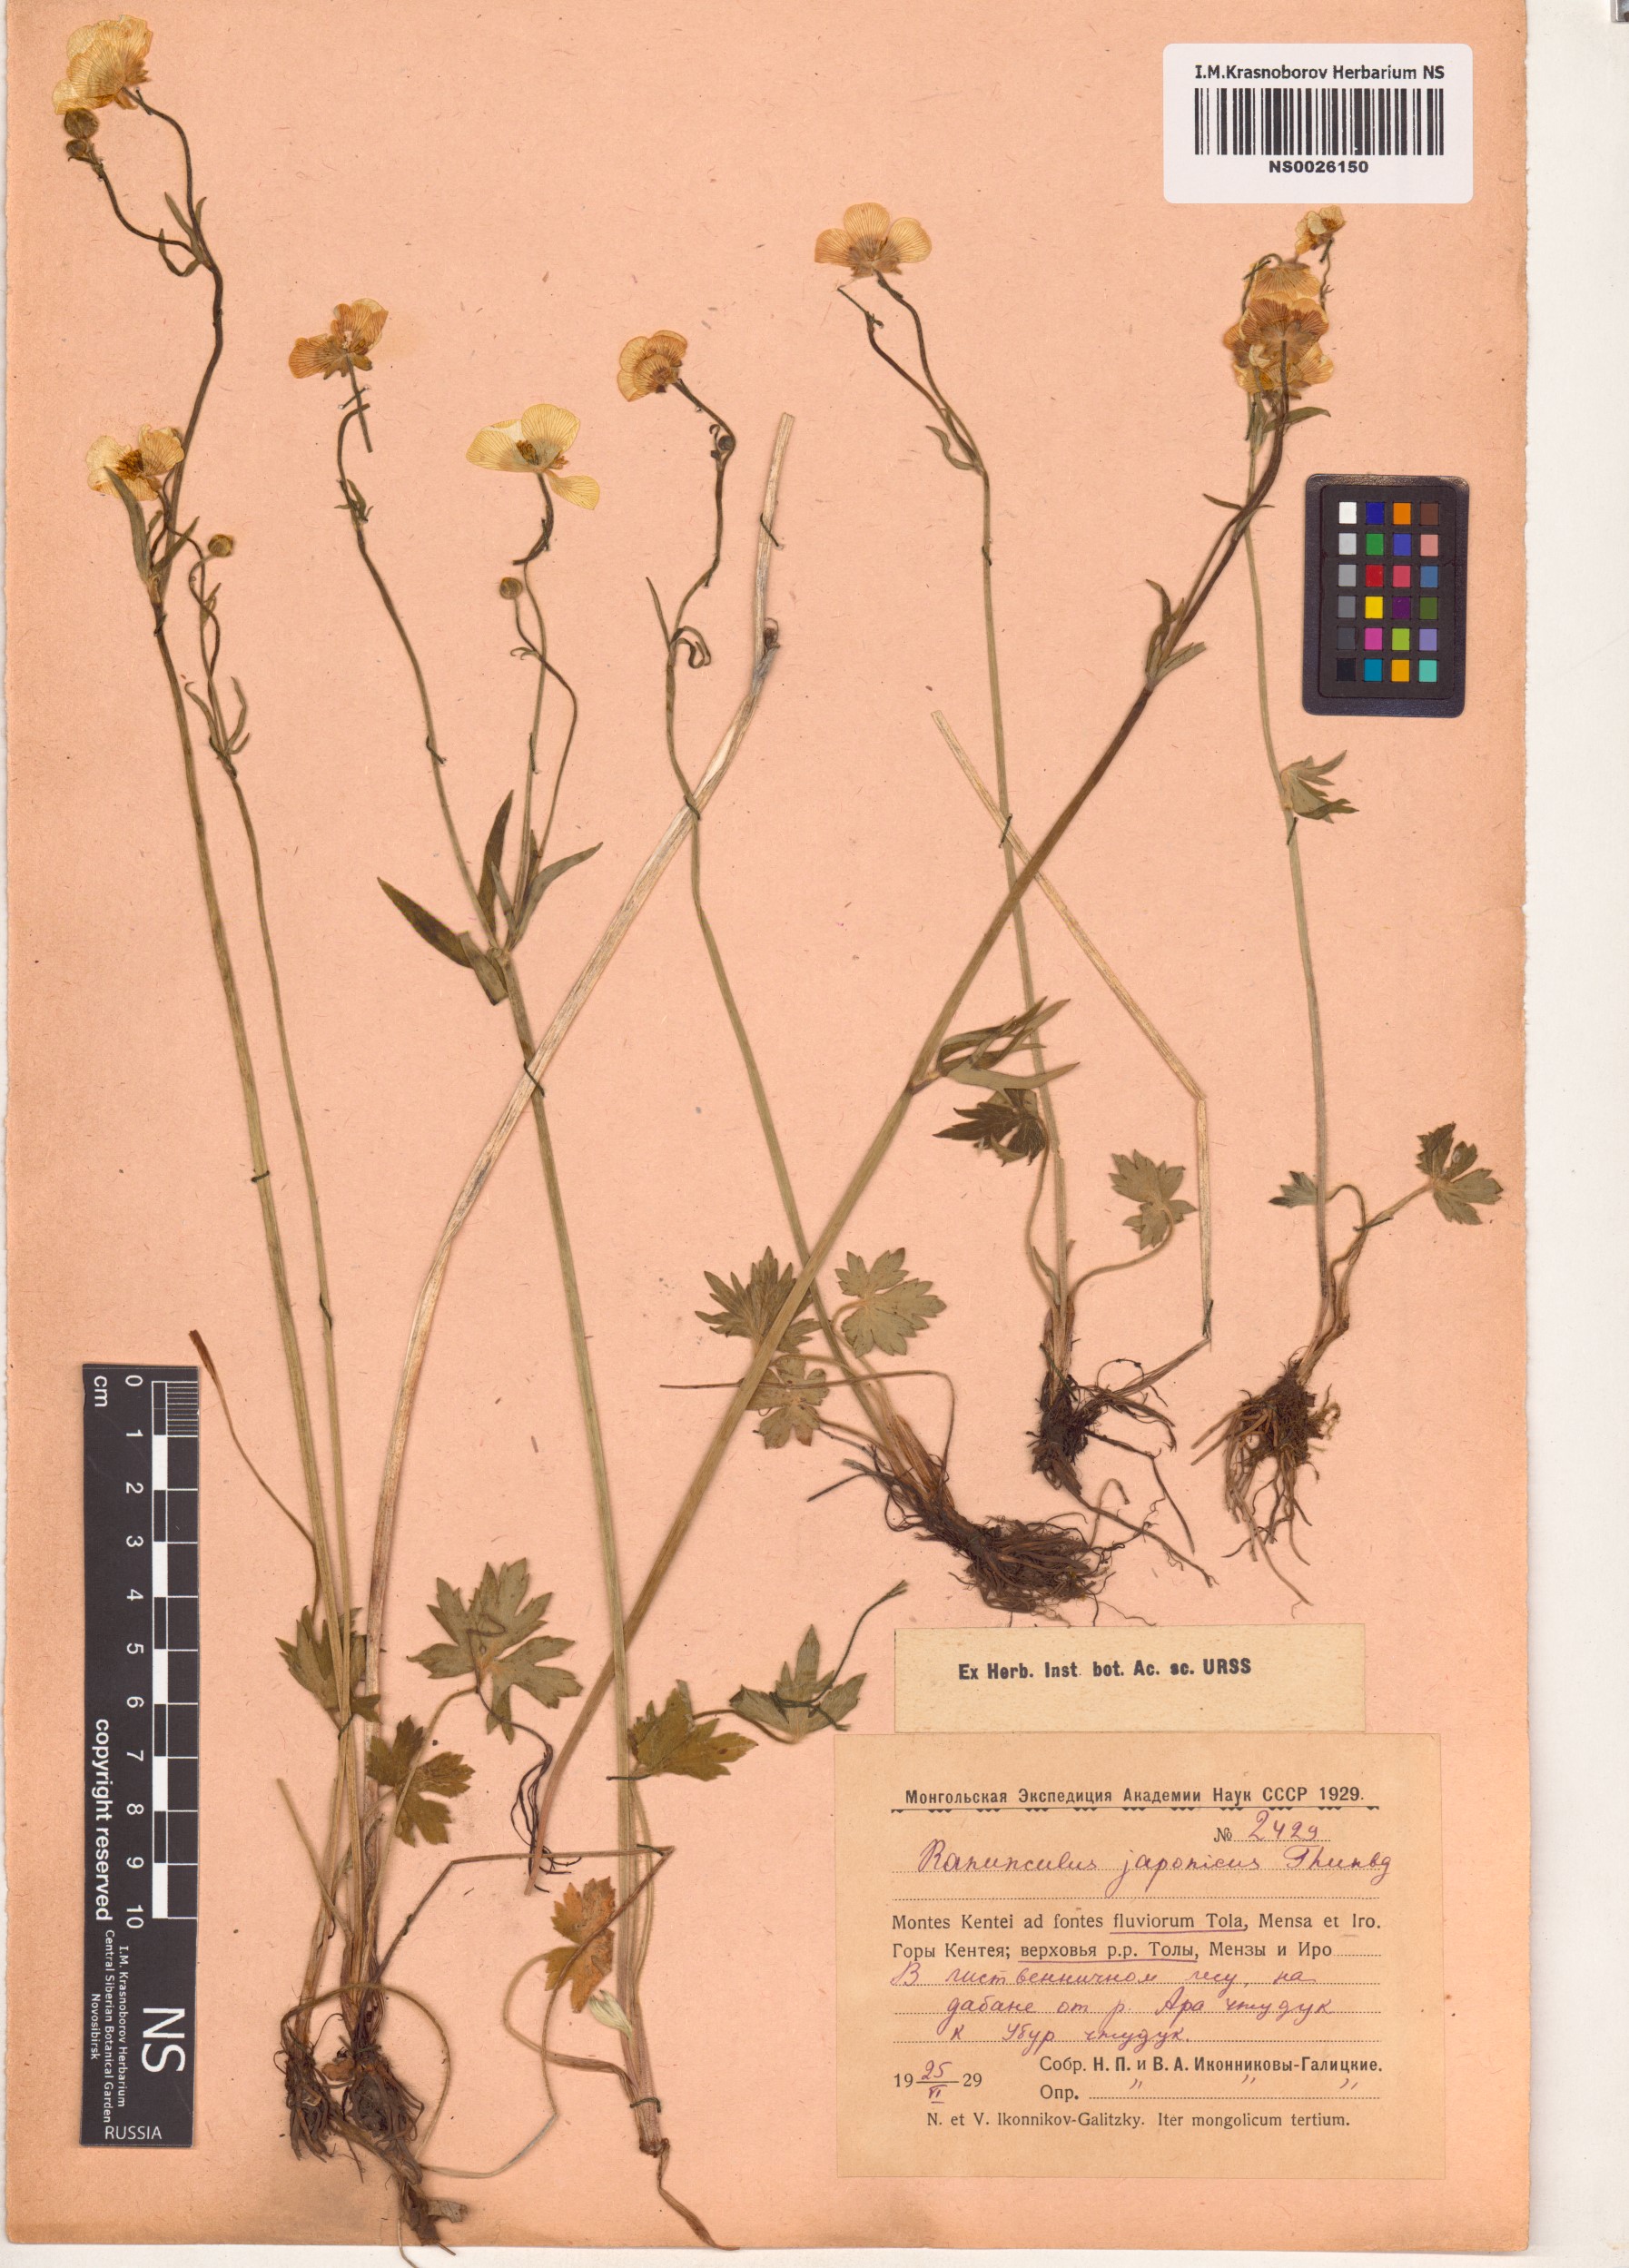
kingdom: Plantae
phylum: Tracheophyta
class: Magnoliopsida
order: Ranunculales
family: Ranunculaceae
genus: Ranunculus
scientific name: Ranunculus japonicus
